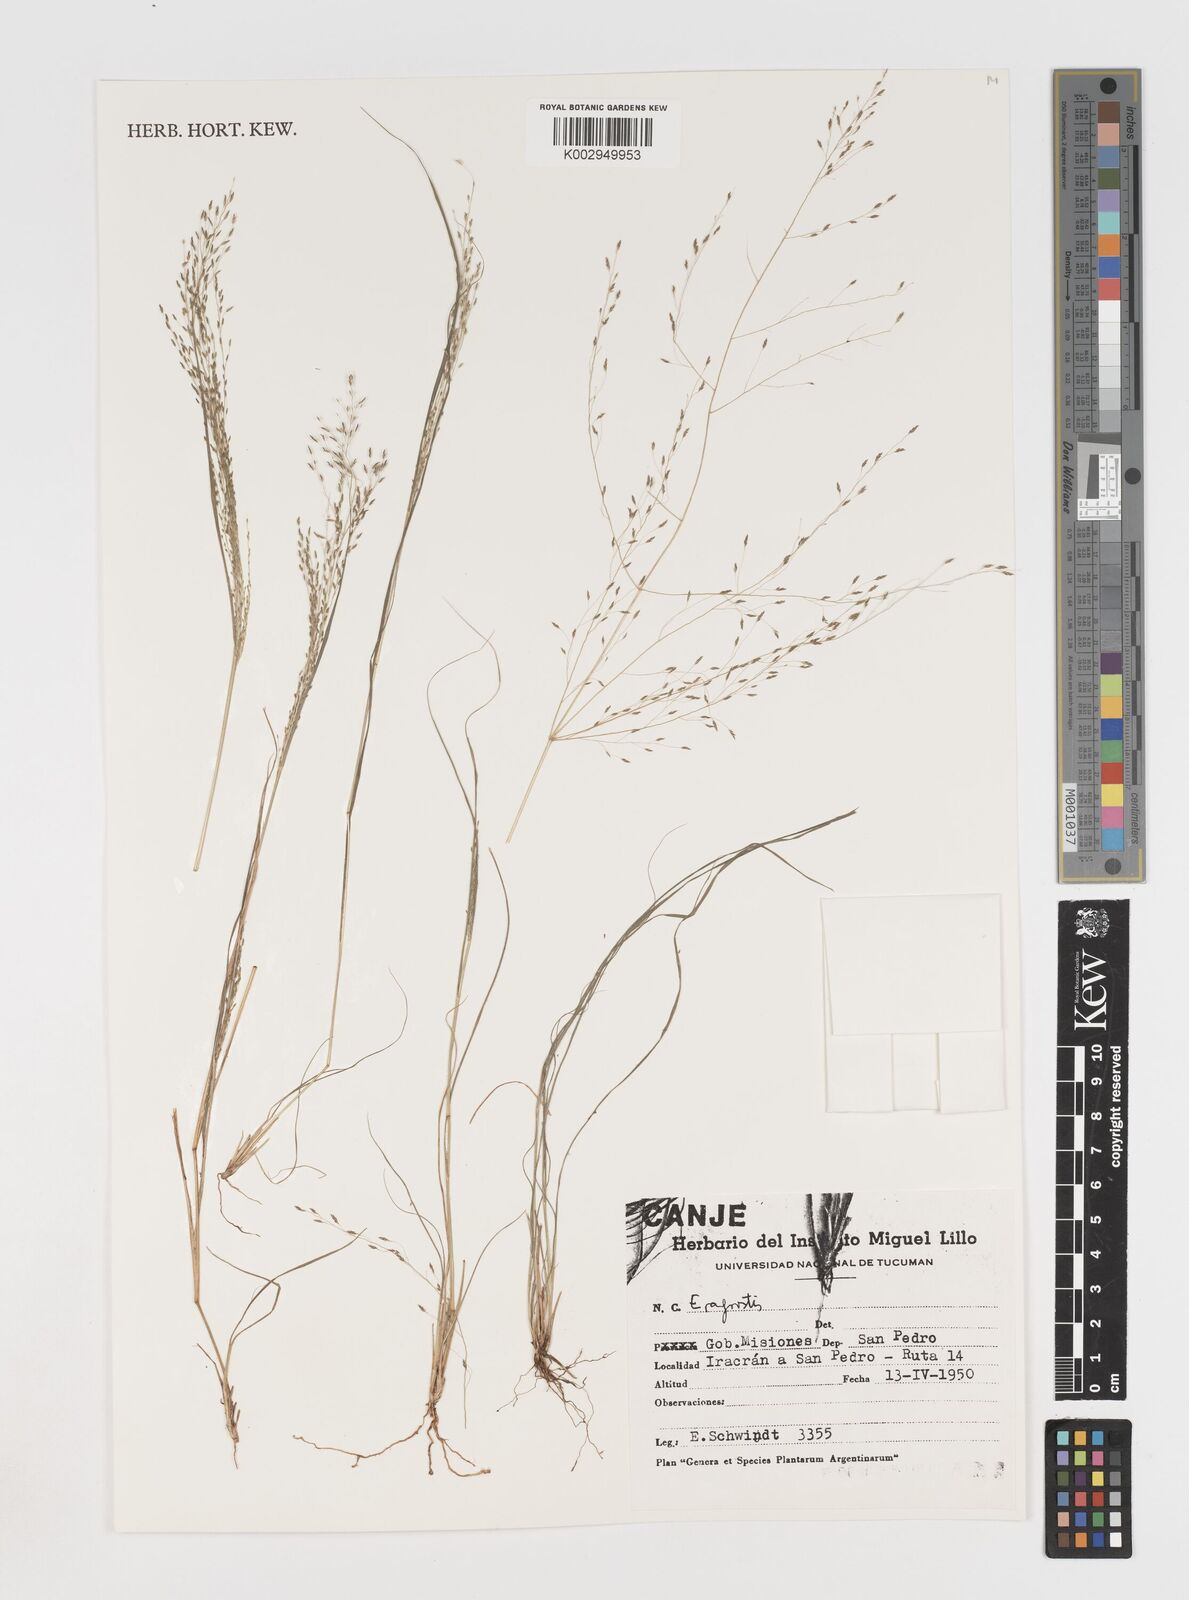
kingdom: Plantae
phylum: Tracheophyta
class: Liliopsida
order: Poales
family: Poaceae
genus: Eragrostis
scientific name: Eragrostis
